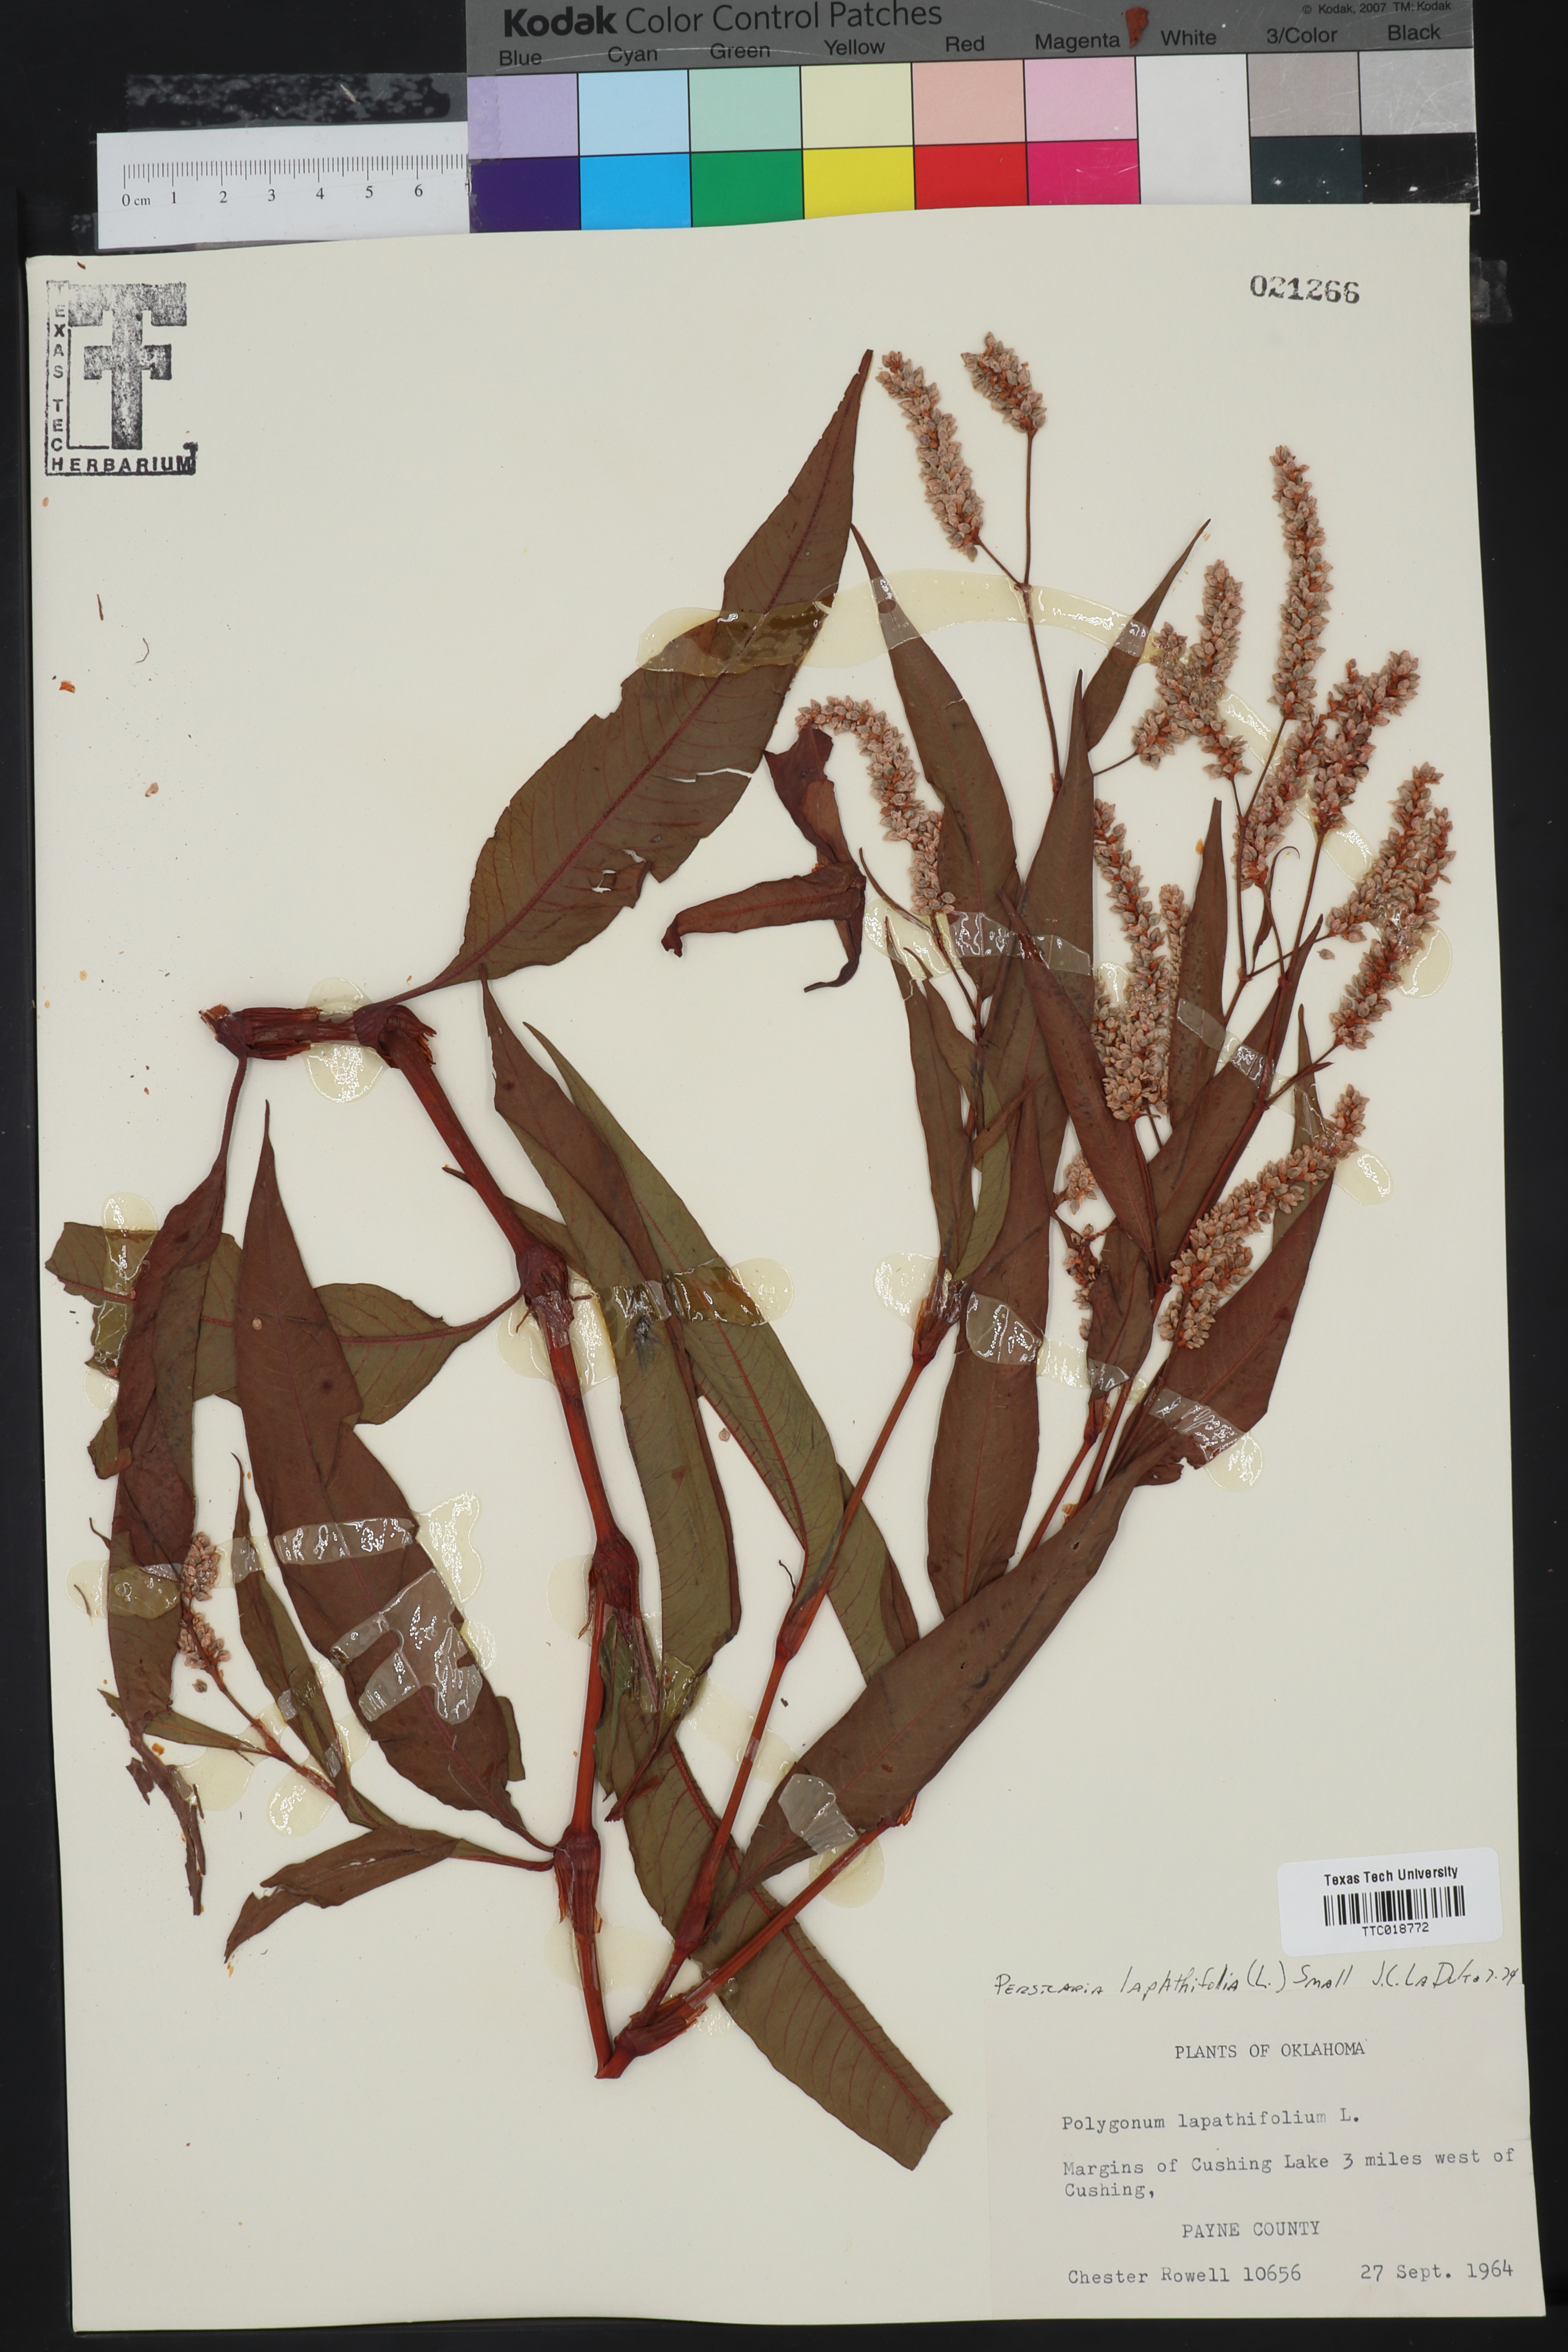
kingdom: Plantae
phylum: Tracheophyta
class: Magnoliopsida
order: Caryophyllales
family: Polygonaceae
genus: Persicaria
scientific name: Persicaria lapathifolia
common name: Curlytop knotweed
